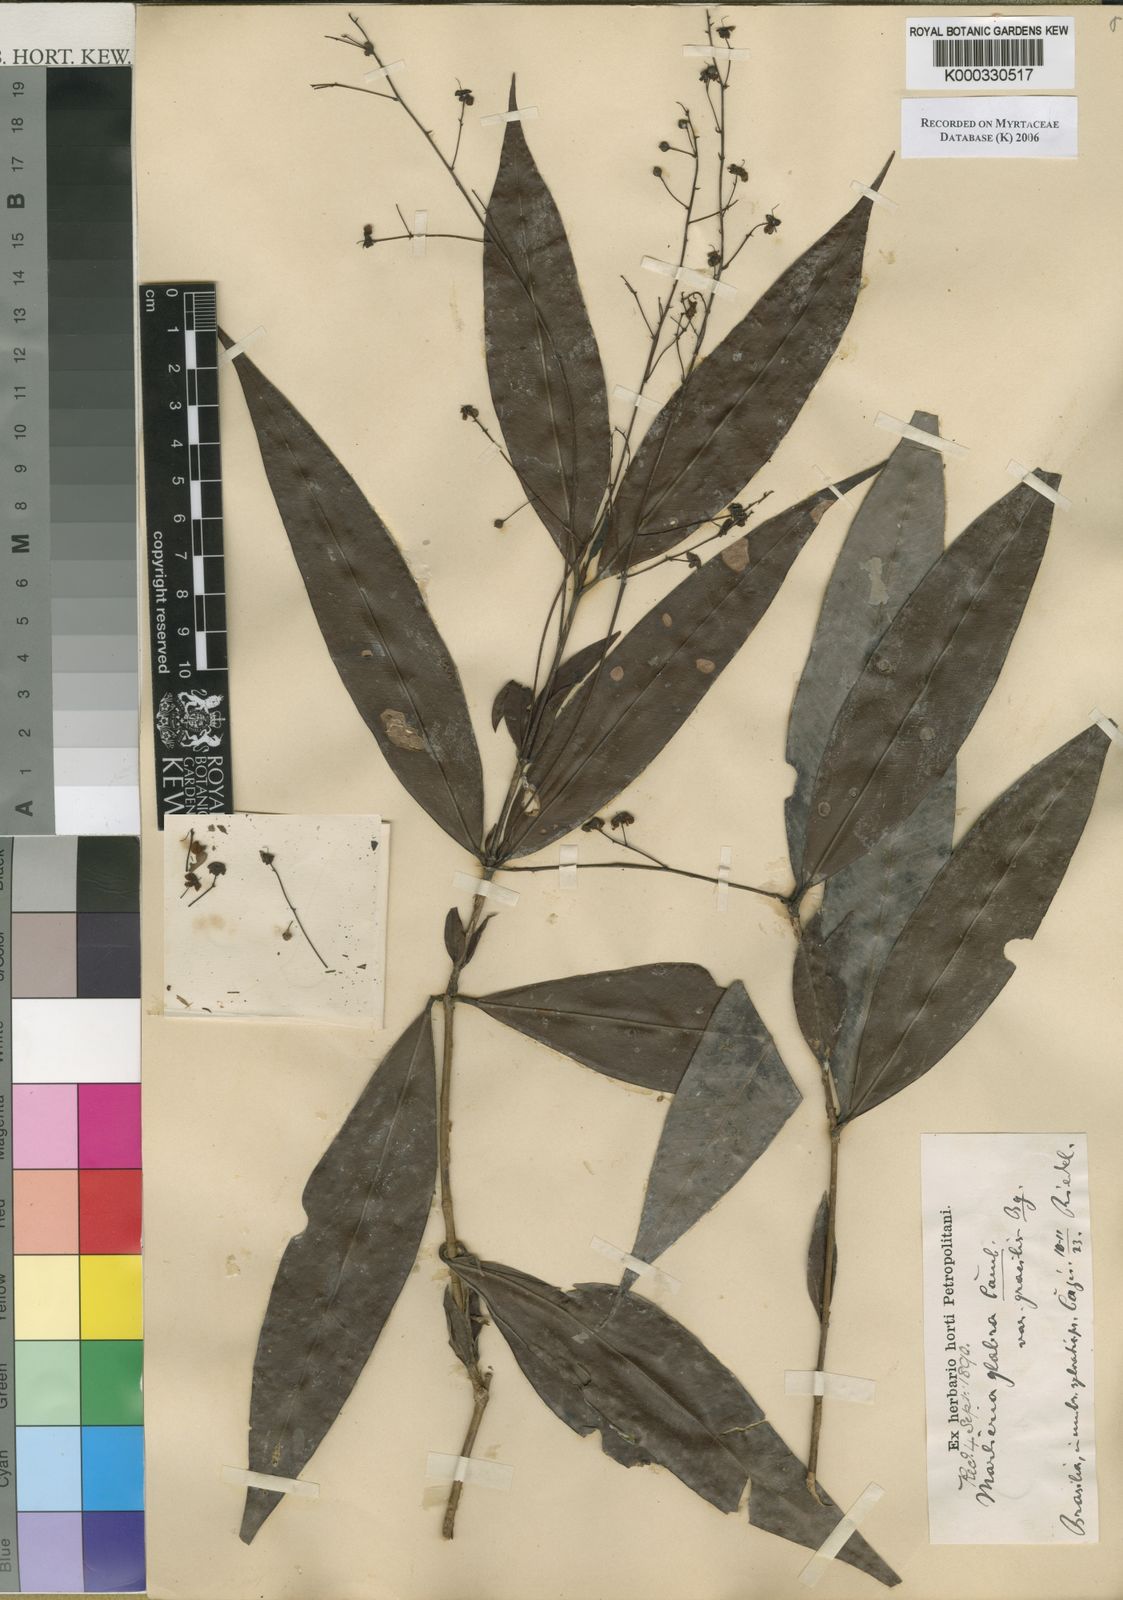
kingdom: Plantae
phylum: Tracheophyta
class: Magnoliopsida
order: Myrtales
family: Myrtaceae
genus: Myrcia
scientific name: Myrcia neoglabra
